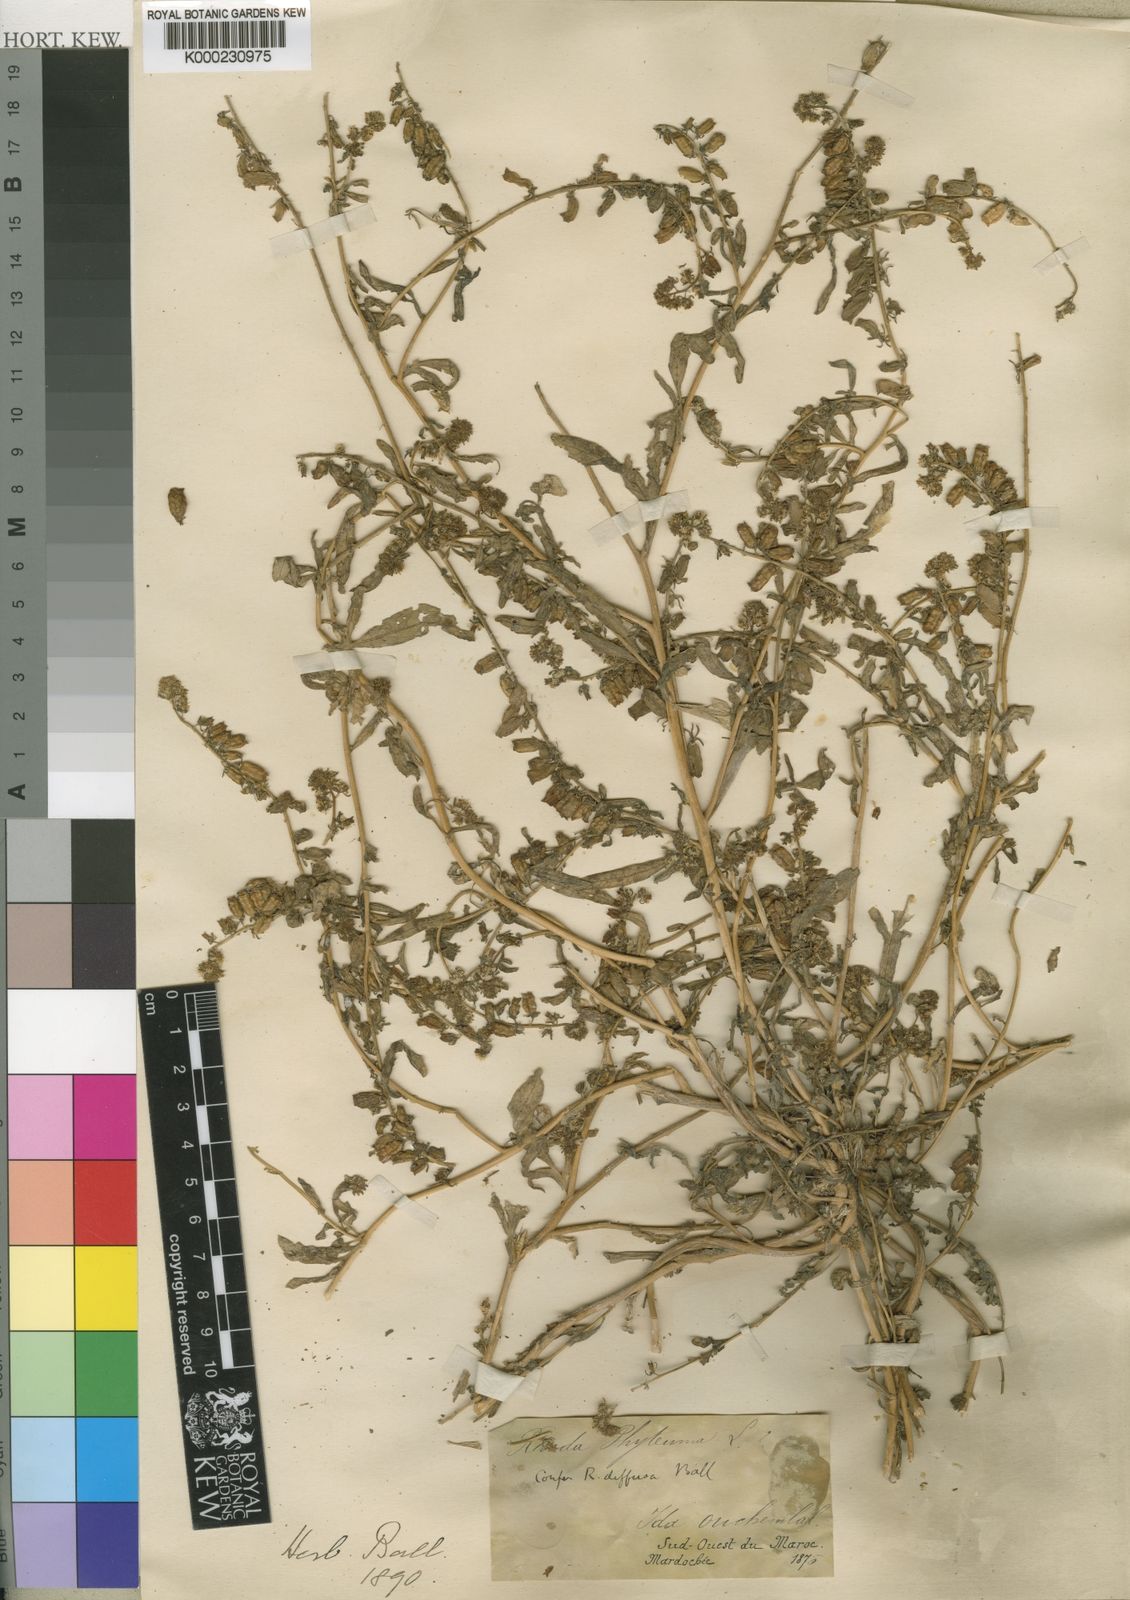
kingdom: Plantae
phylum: Tracheophyta
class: Magnoliopsida
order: Brassicales
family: Resedaceae
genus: Reseda
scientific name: Reseda diffusa
